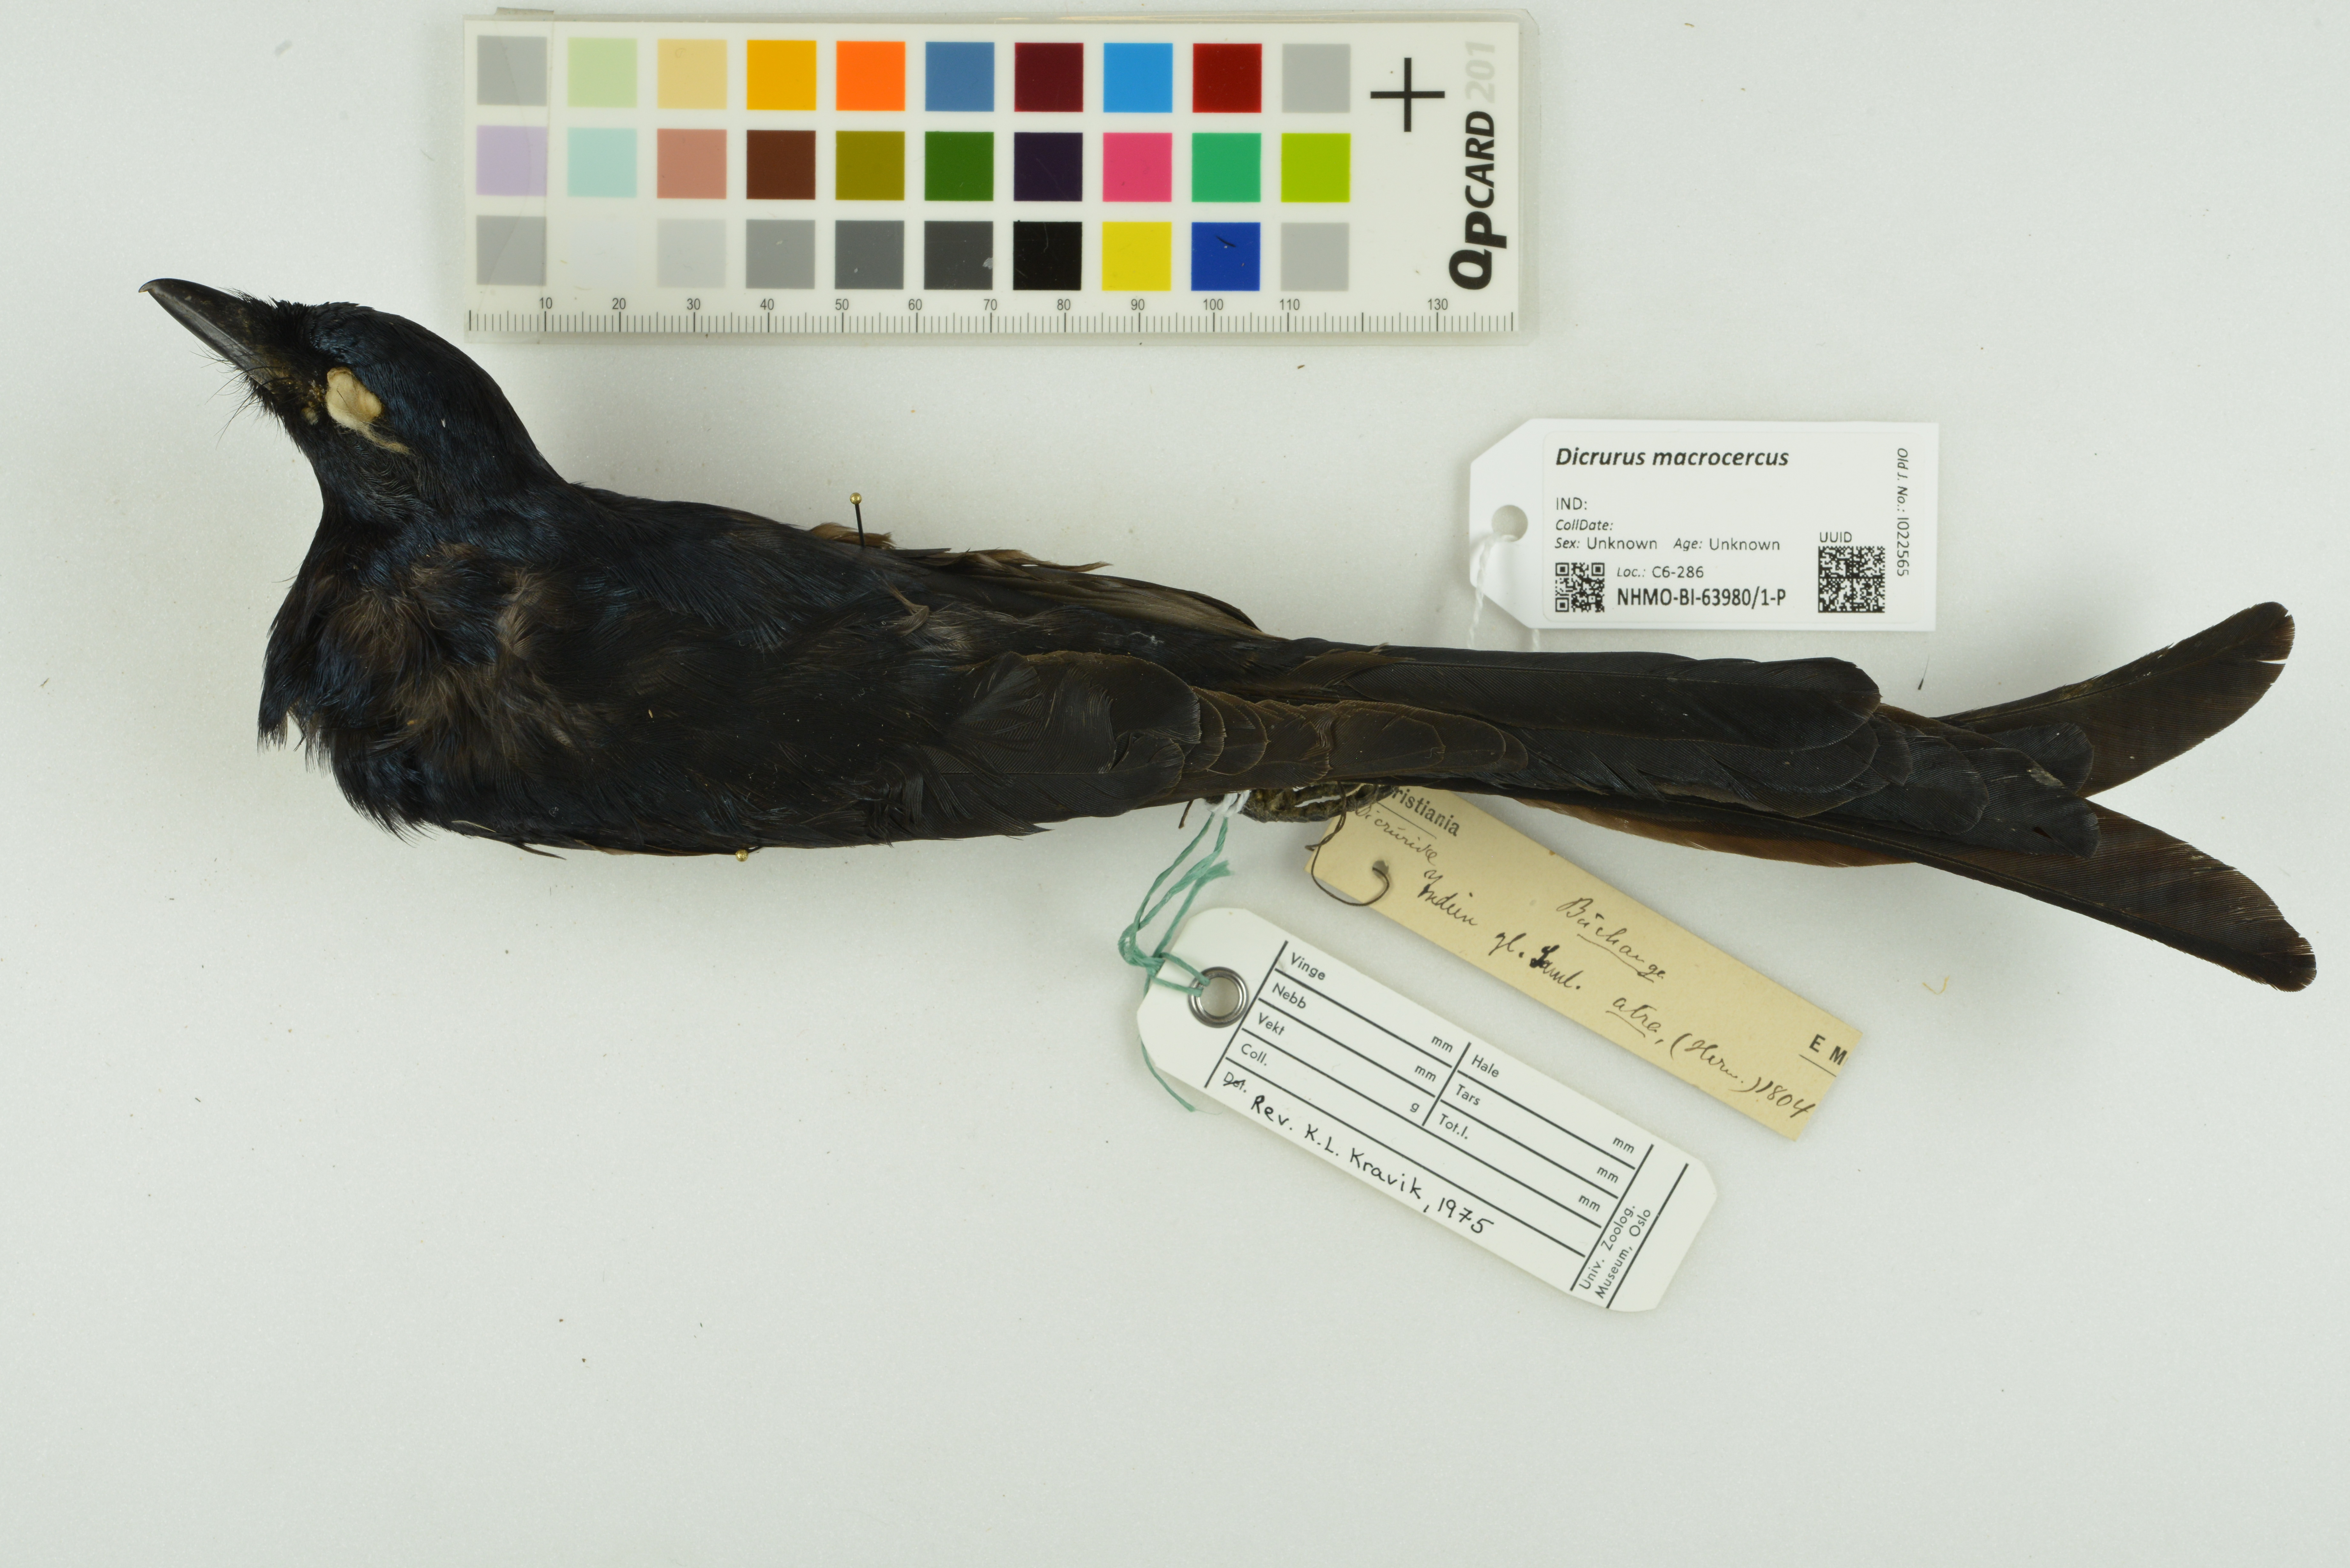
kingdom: Animalia
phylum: Chordata
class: Aves
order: Passeriformes
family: Dicruridae
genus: Dicrurus
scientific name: Dicrurus macrocercus
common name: Black drongo
